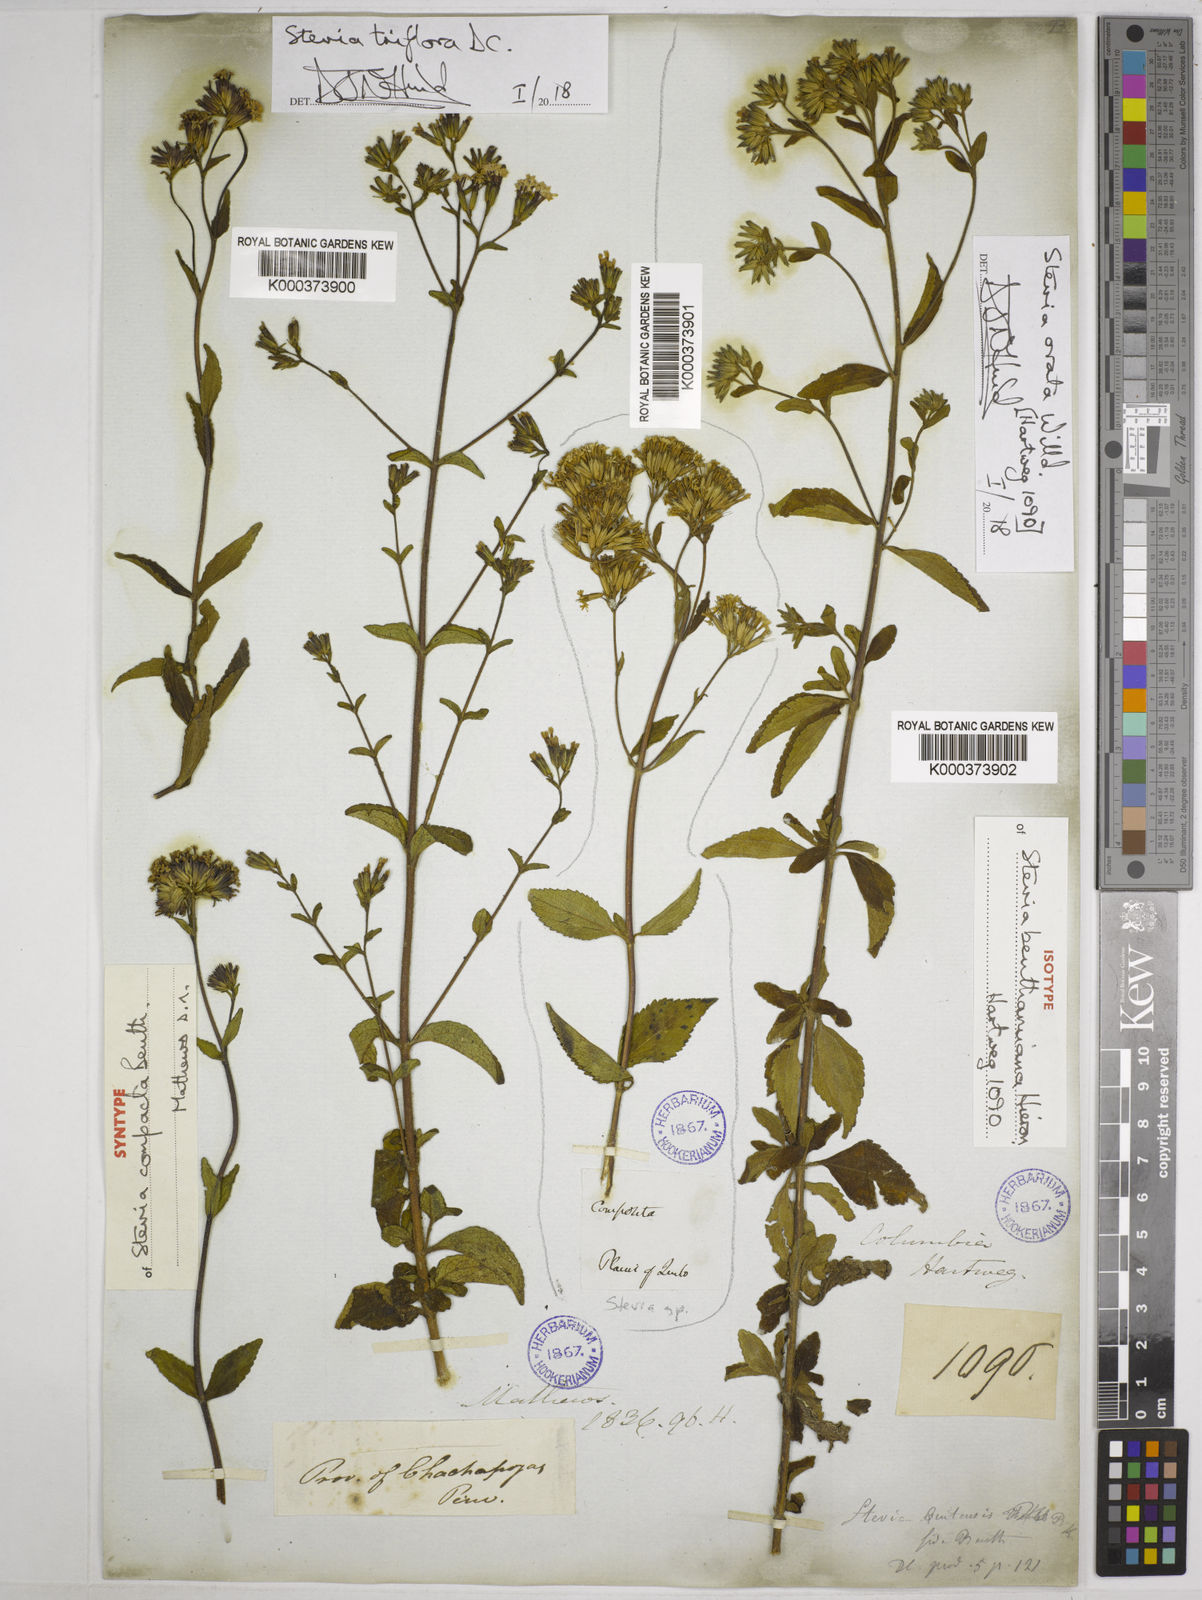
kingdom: Plantae
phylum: Tracheophyta
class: Magnoliopsida
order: Asterales
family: Asteraceae
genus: Stevia
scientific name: Stevia ovata
